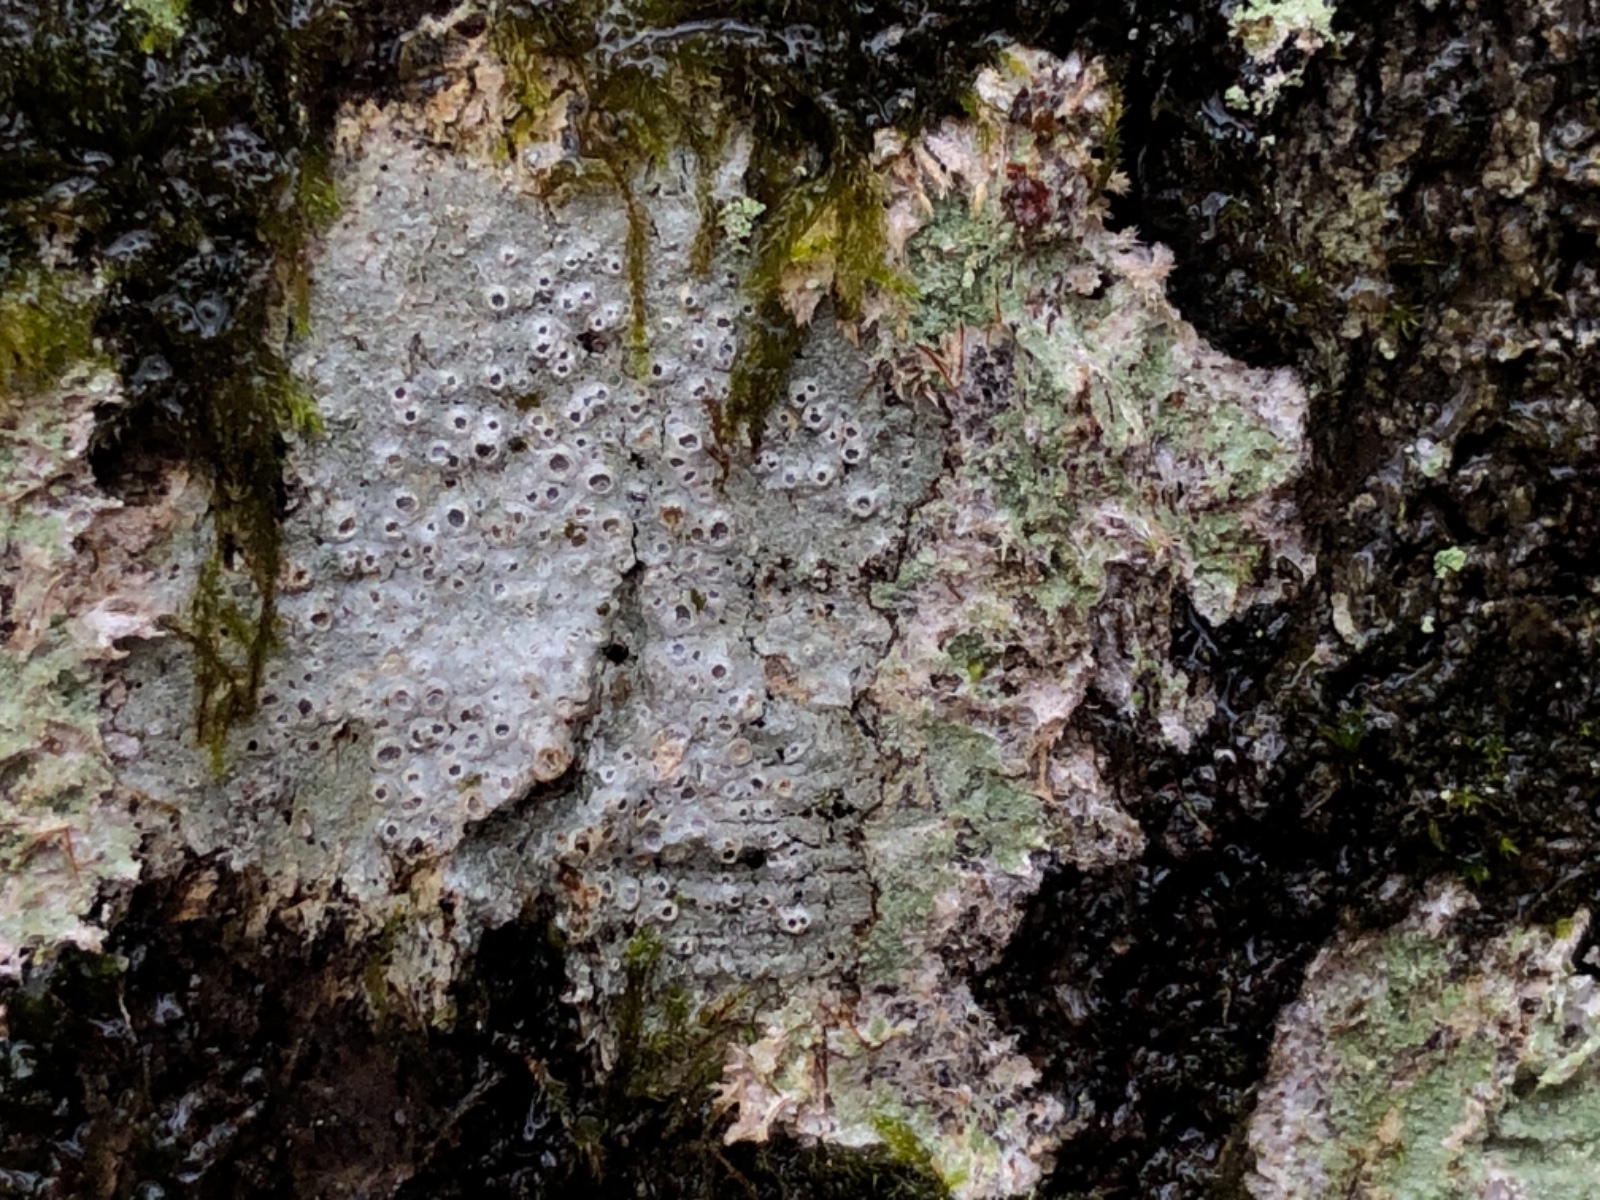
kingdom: Fungi
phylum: Ascomycota
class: Lecanoromycetes
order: Ostropales
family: Graphidaceae
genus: Thelotrema
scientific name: Thelotrema lepadinum
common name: almindelig slørkantlav
